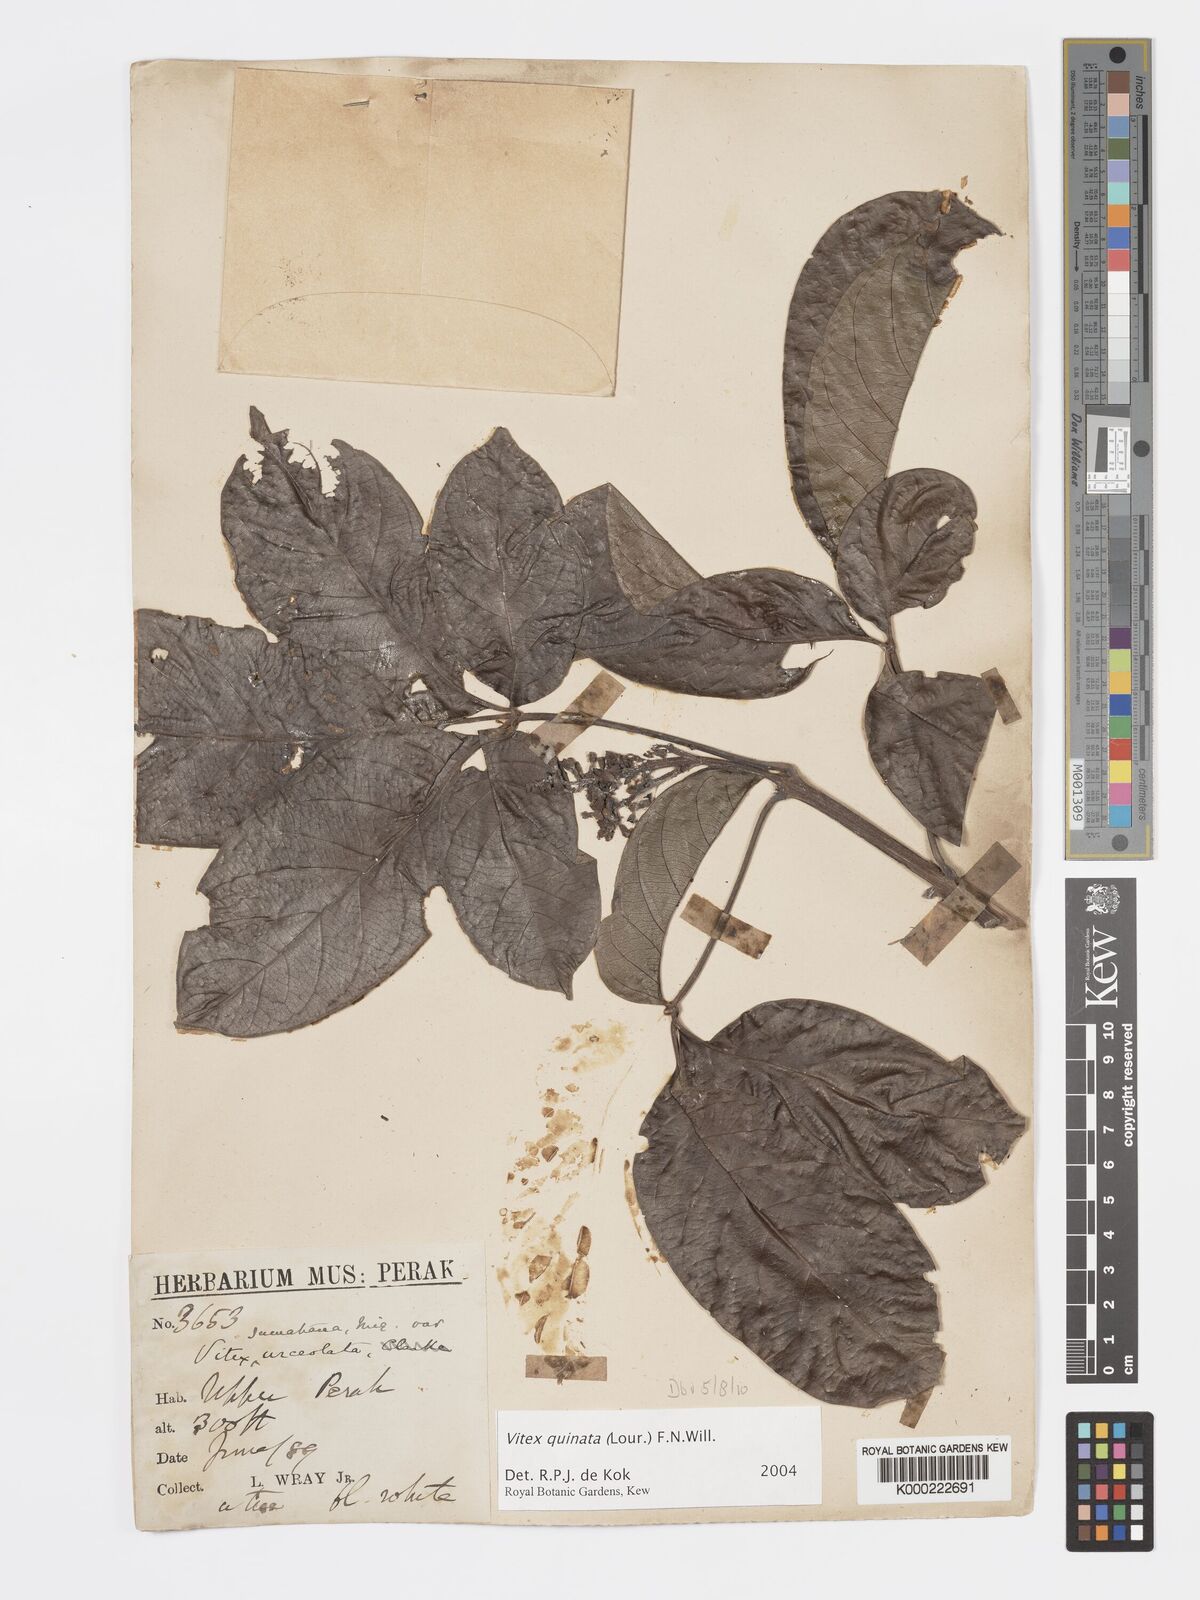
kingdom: Plantae
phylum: Tracheophyta
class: Magnoliopsida
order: Lamiales
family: Lamiaceae
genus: Vitex
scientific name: Vitex quinata
